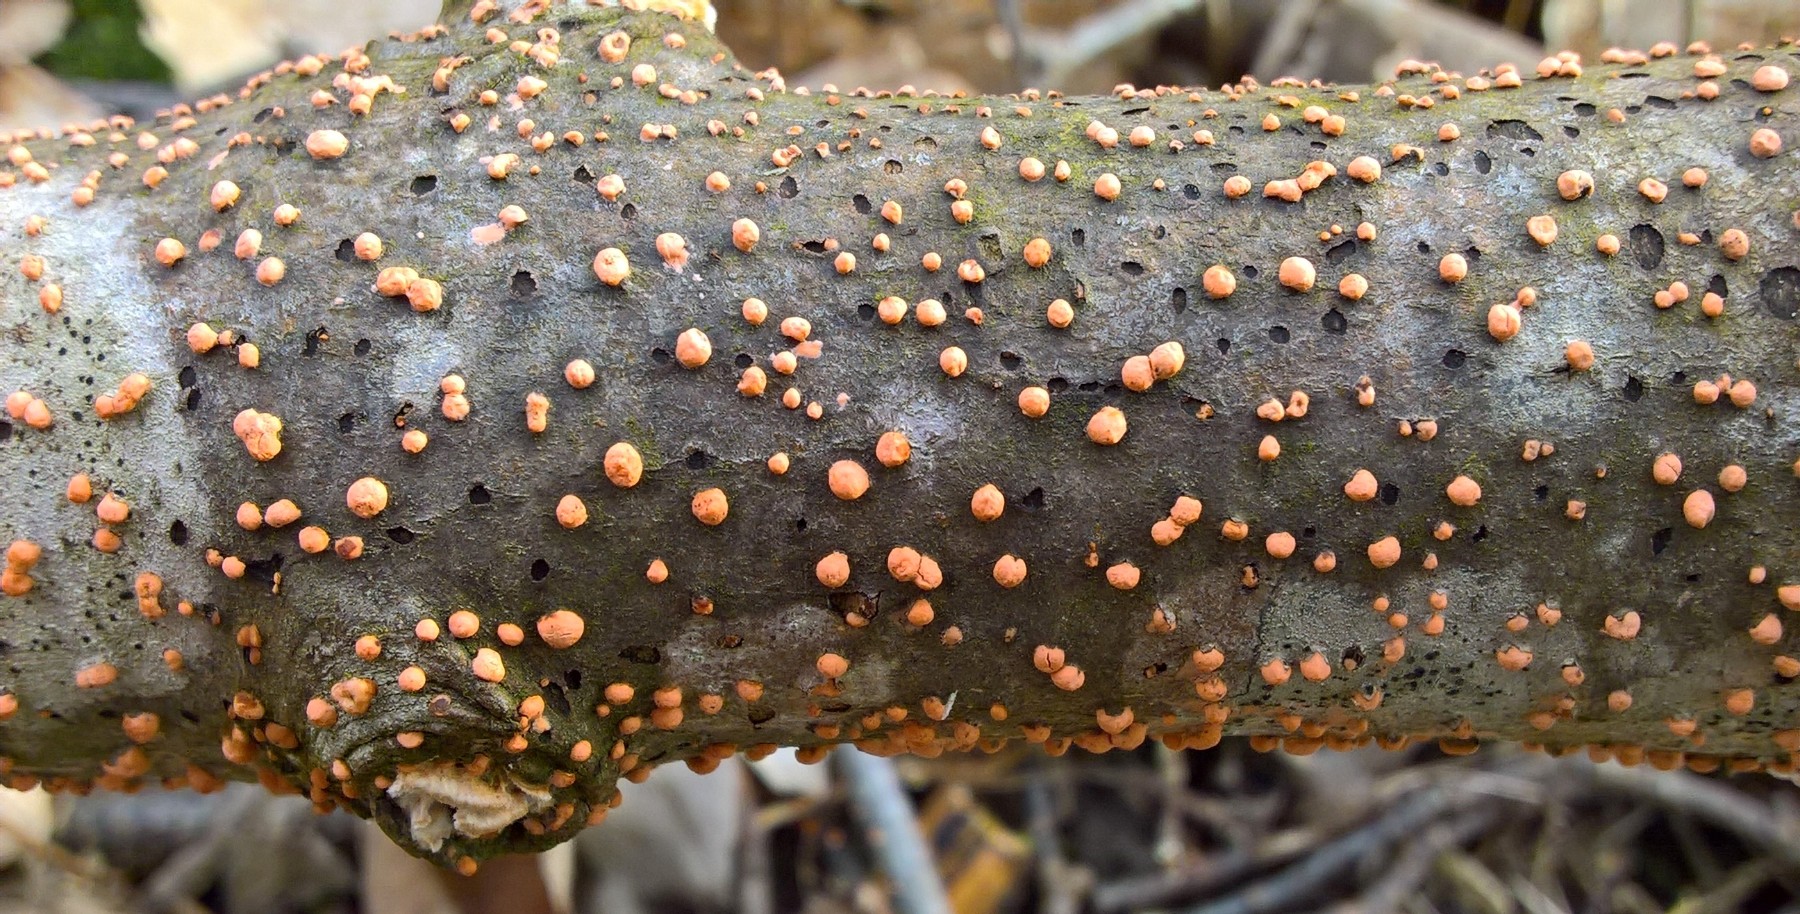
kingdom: Fungi
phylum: Ascomycota
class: Sordariomycetes
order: Hypocreales
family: Nectriaceae
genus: Nectria
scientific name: Nectria cinnabarina
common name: almindelig cinnobersvamp
